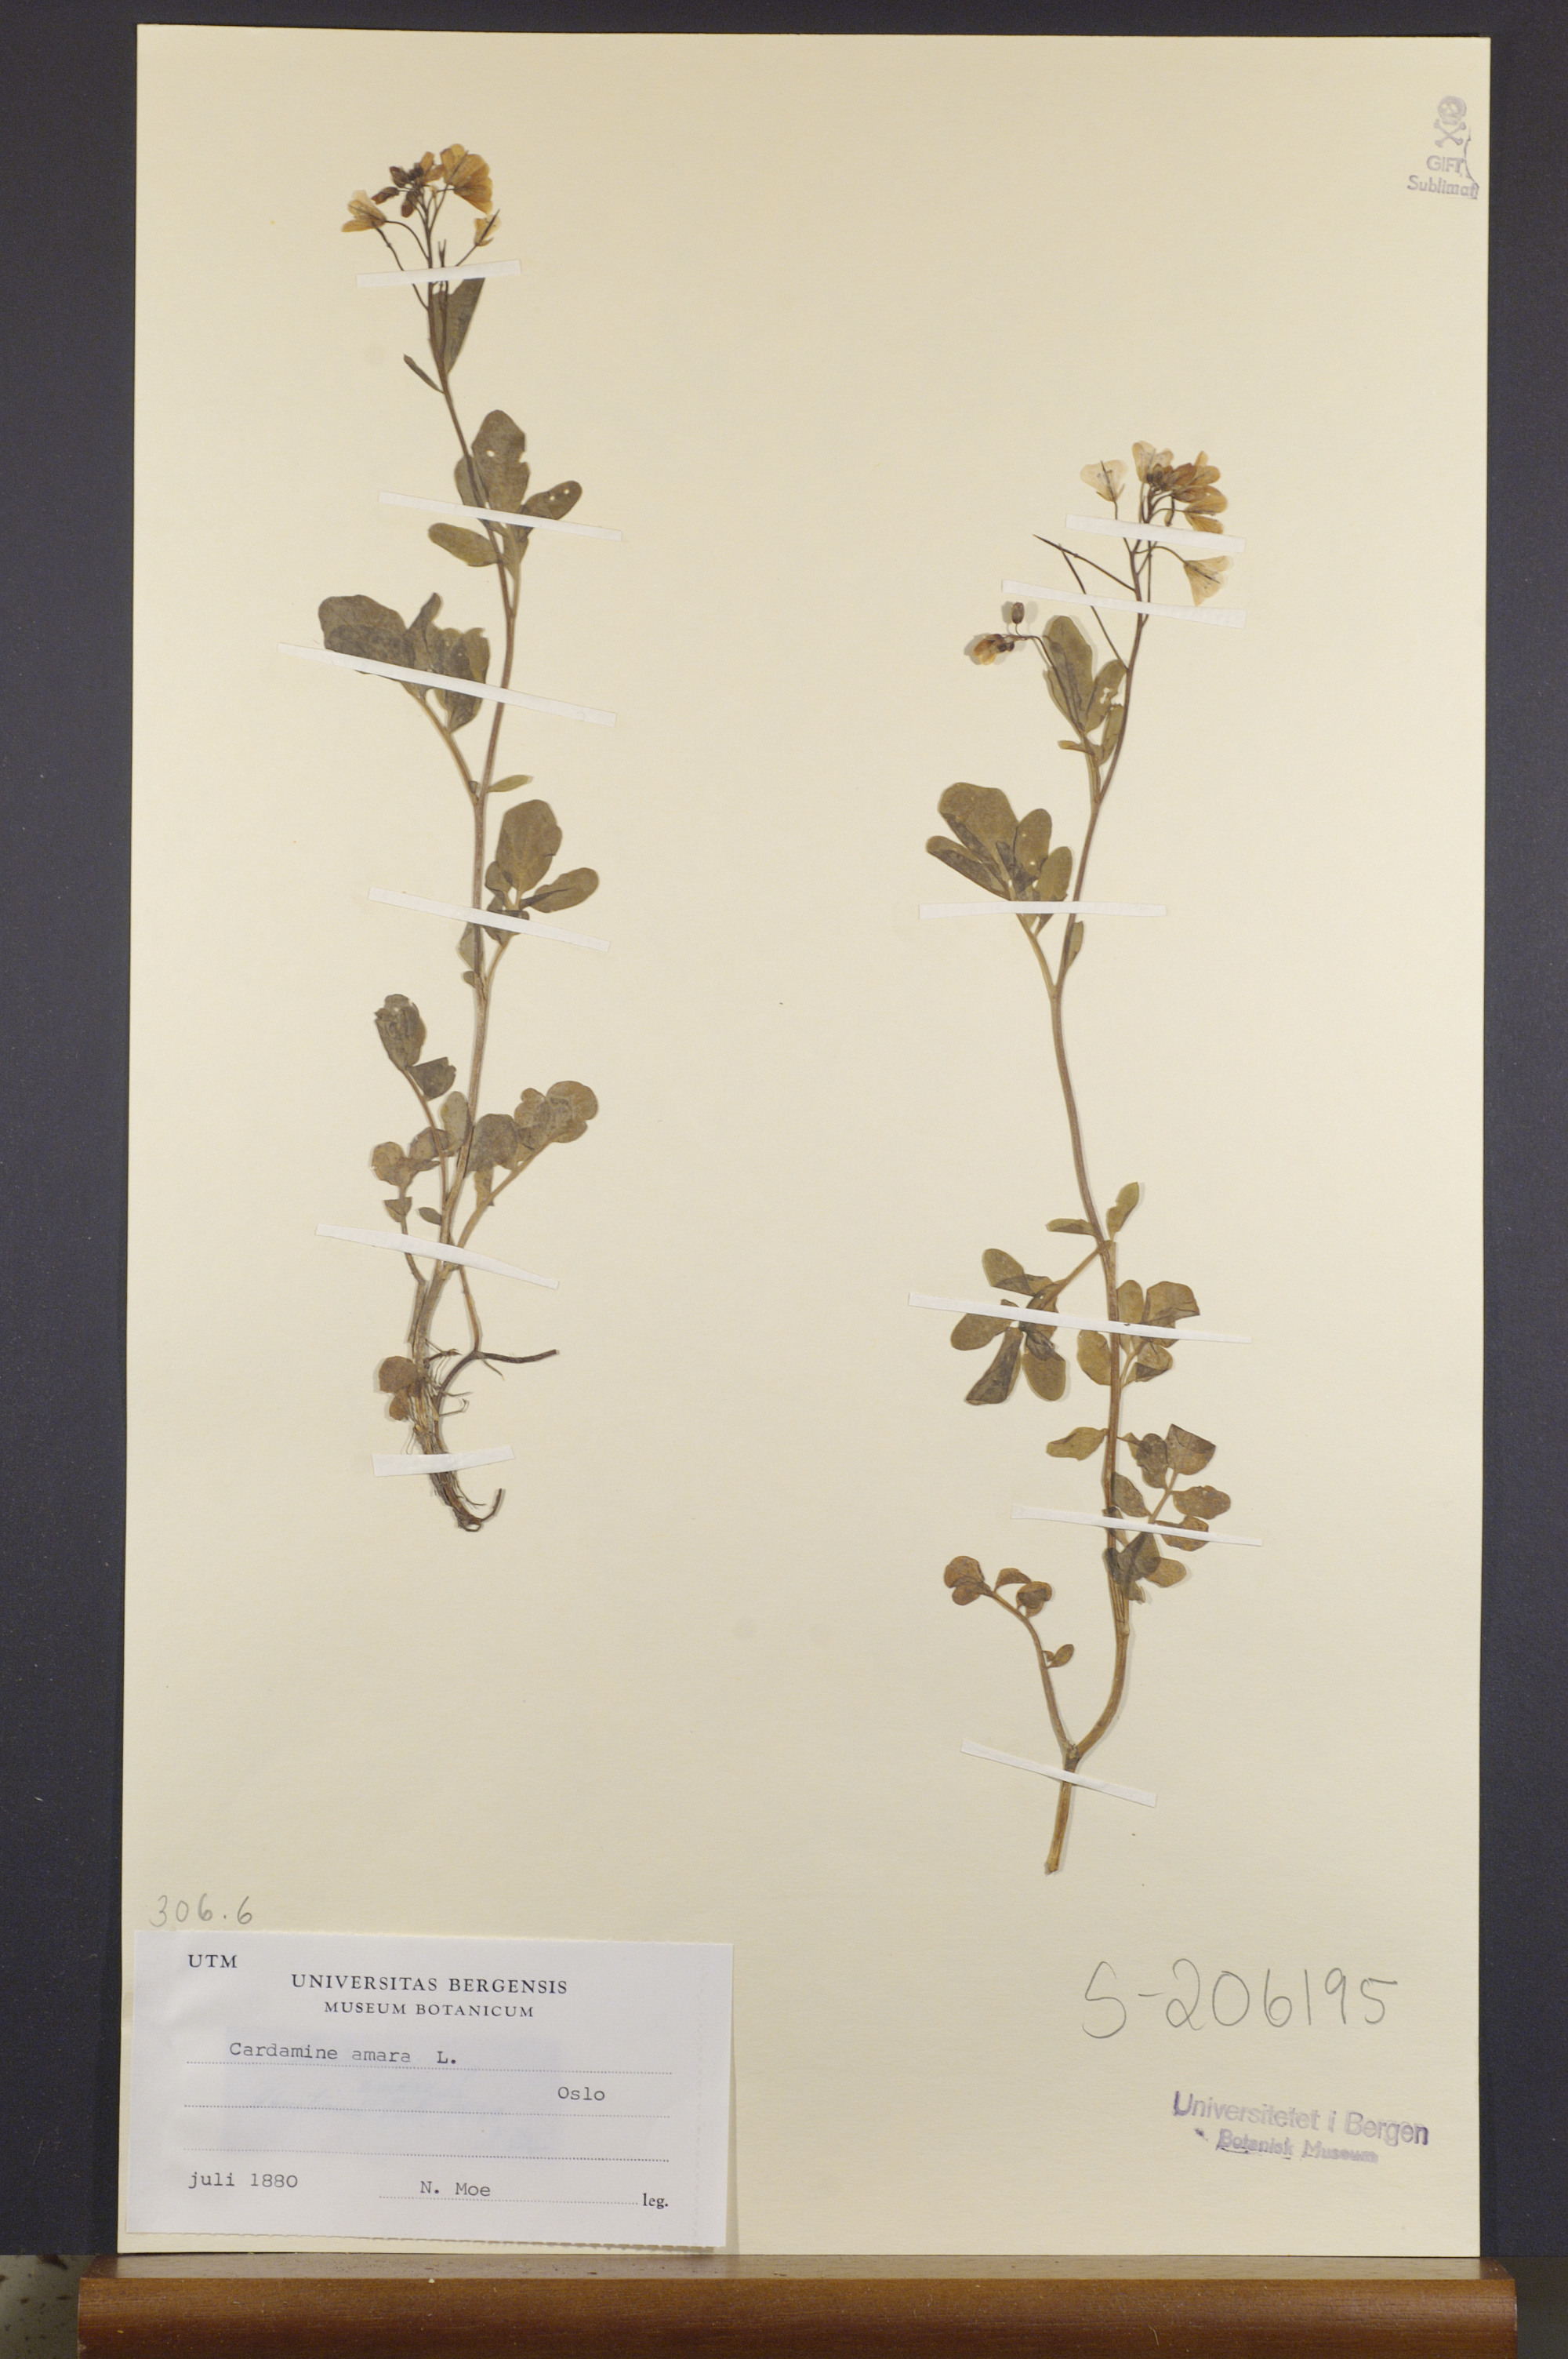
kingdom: Plantae
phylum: Tracheophyta
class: Magnoliopsida
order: Brassicales
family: Brassicaceae
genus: Cardamine
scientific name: Cardamine amara
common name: Large bitter-cress
